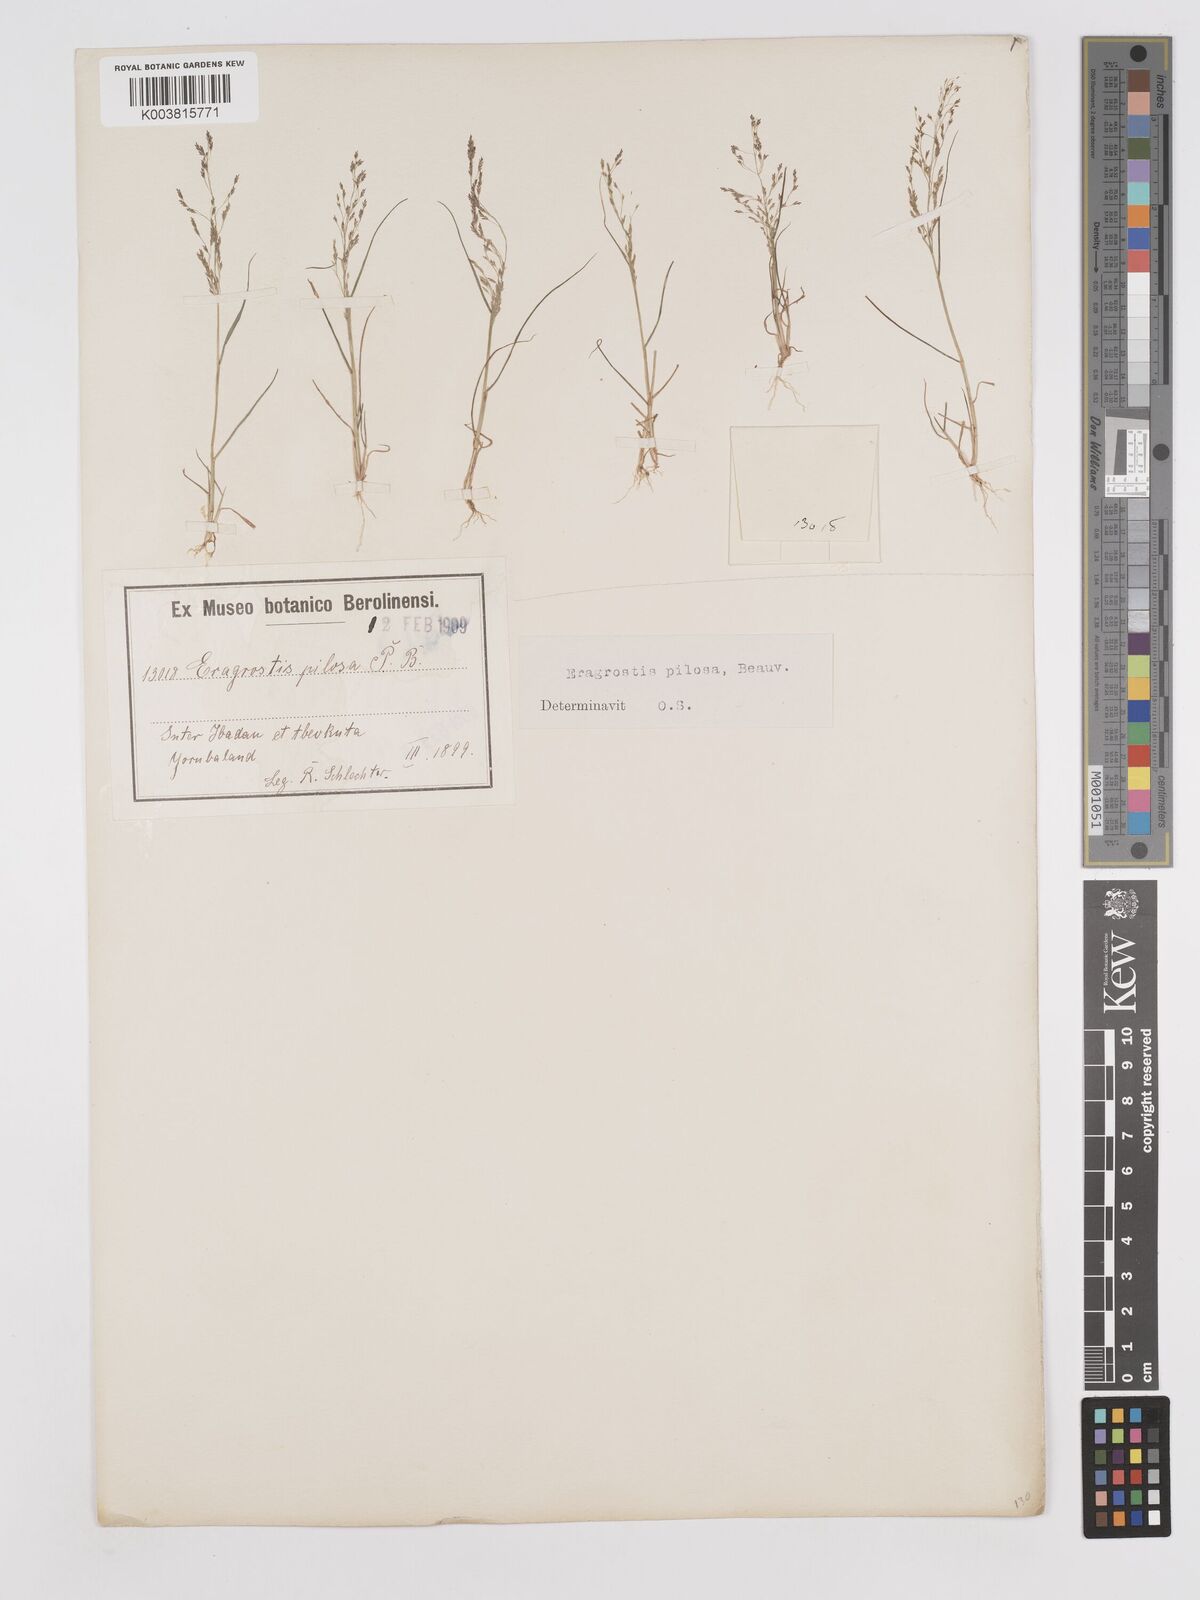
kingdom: Plantae
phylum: Tracheophyta
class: Liliopsida
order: Poales
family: Poaceae
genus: Eragrostis
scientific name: Eragrostis pilosa
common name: Indian lovegrass
